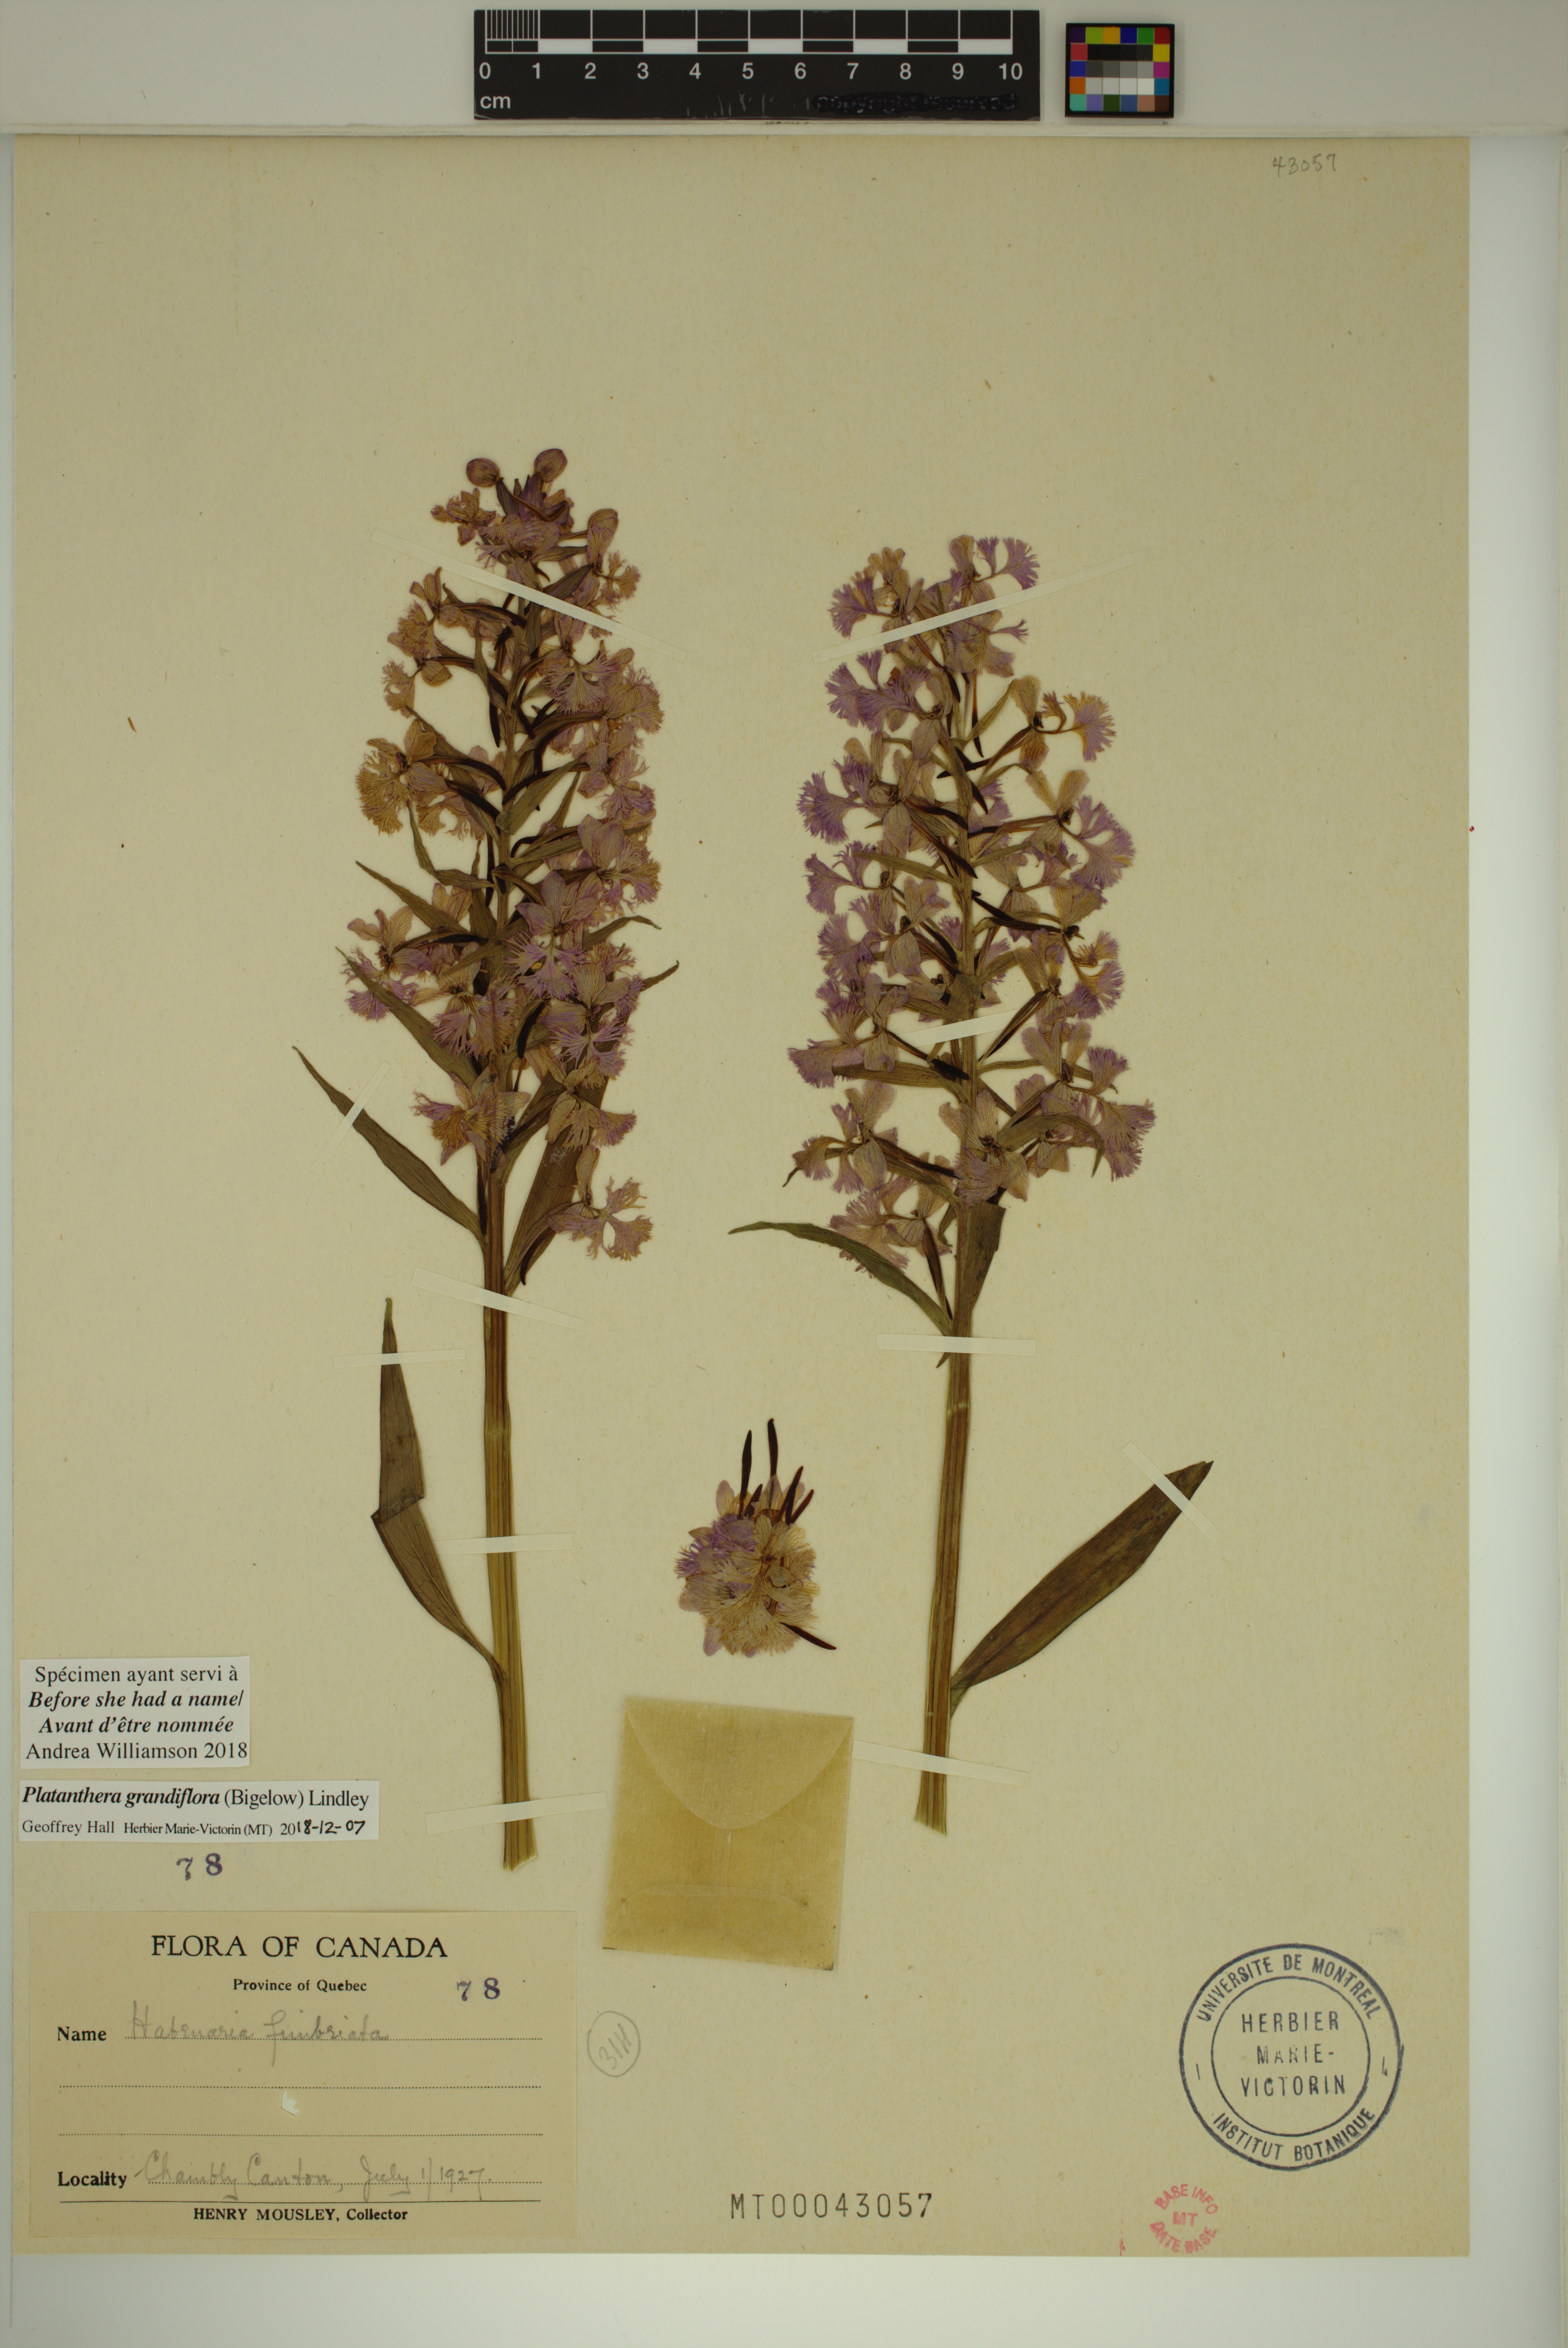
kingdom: Plantae
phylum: Tracheophyta
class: Liliopsida
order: Asparagales
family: Orchidaceae
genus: Platanthera
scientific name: Platanthera grandiflora
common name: Greater purple fringed orchid
